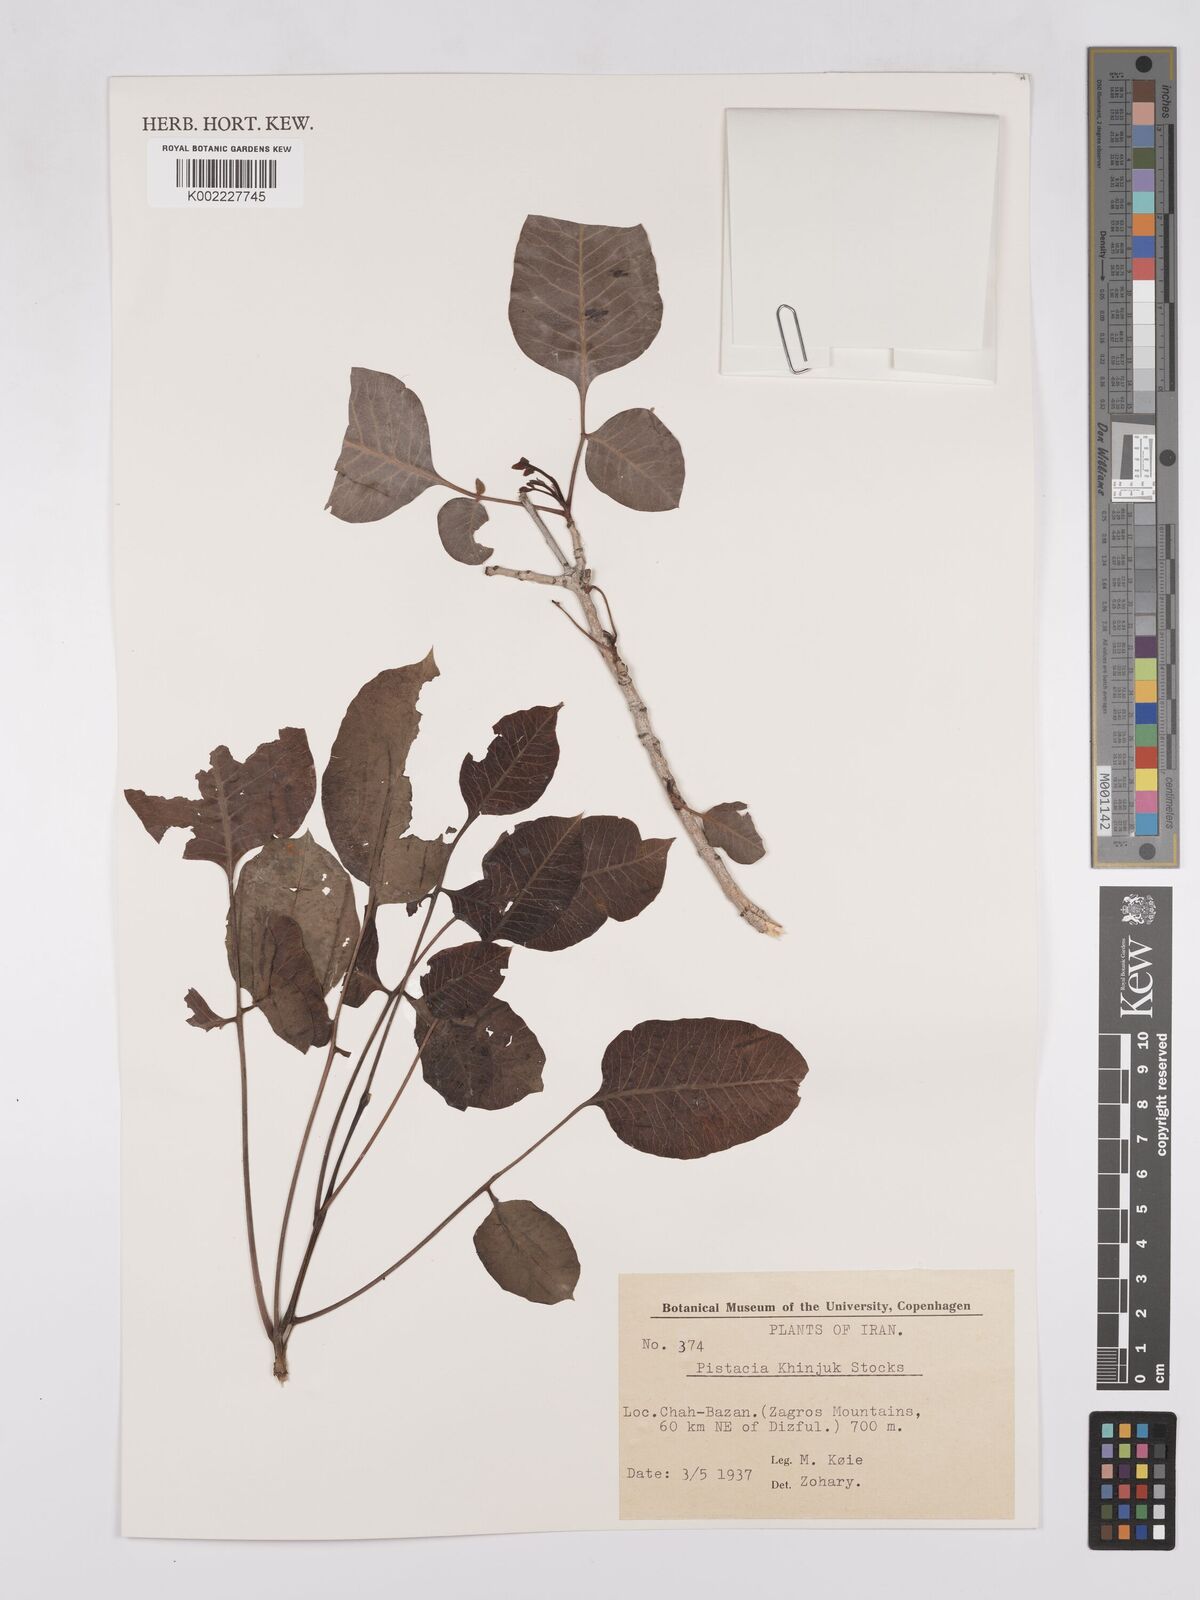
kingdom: Plantae
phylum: Tracheophyta
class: Magnoliopsida
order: Sapindales
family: Anacardiaceae
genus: Pistacia
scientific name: Pistacia khinjuk
